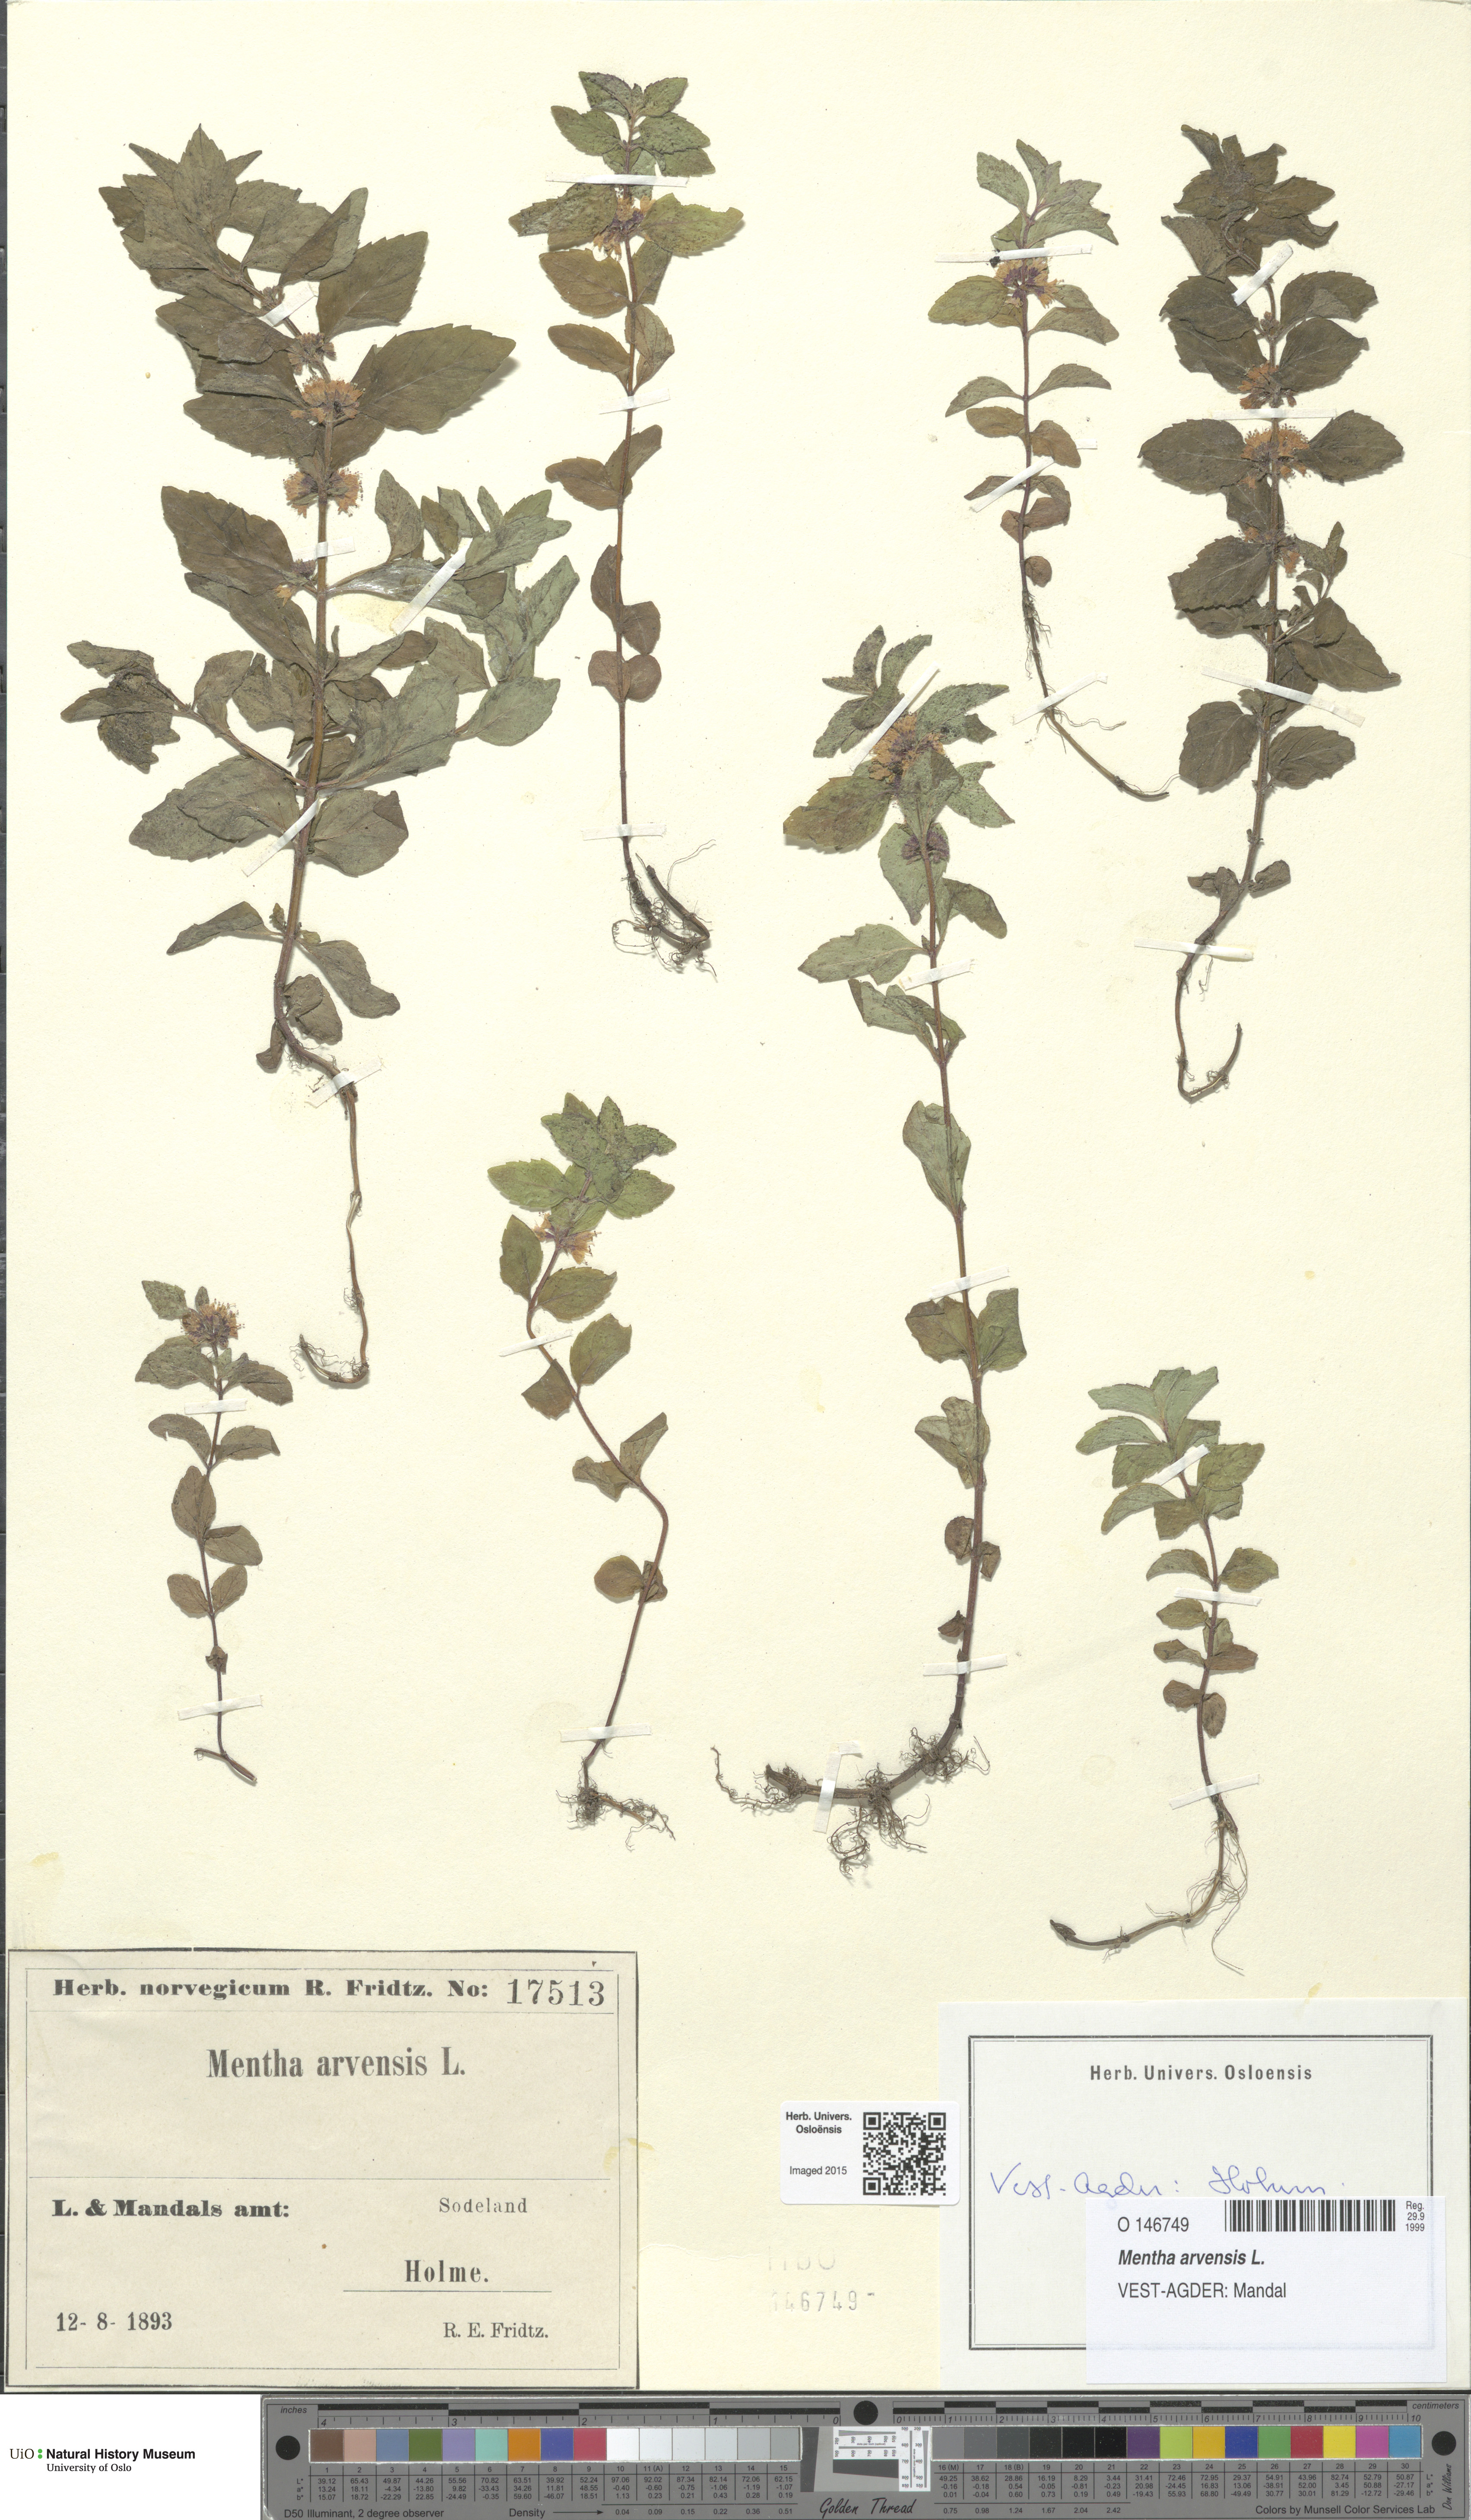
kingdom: Plantae
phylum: Tracheophyta
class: Magnoliopsida
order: Lamiales
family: Lamiaceae
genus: Mentha
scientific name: Mentha arvensis
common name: Corn mint
